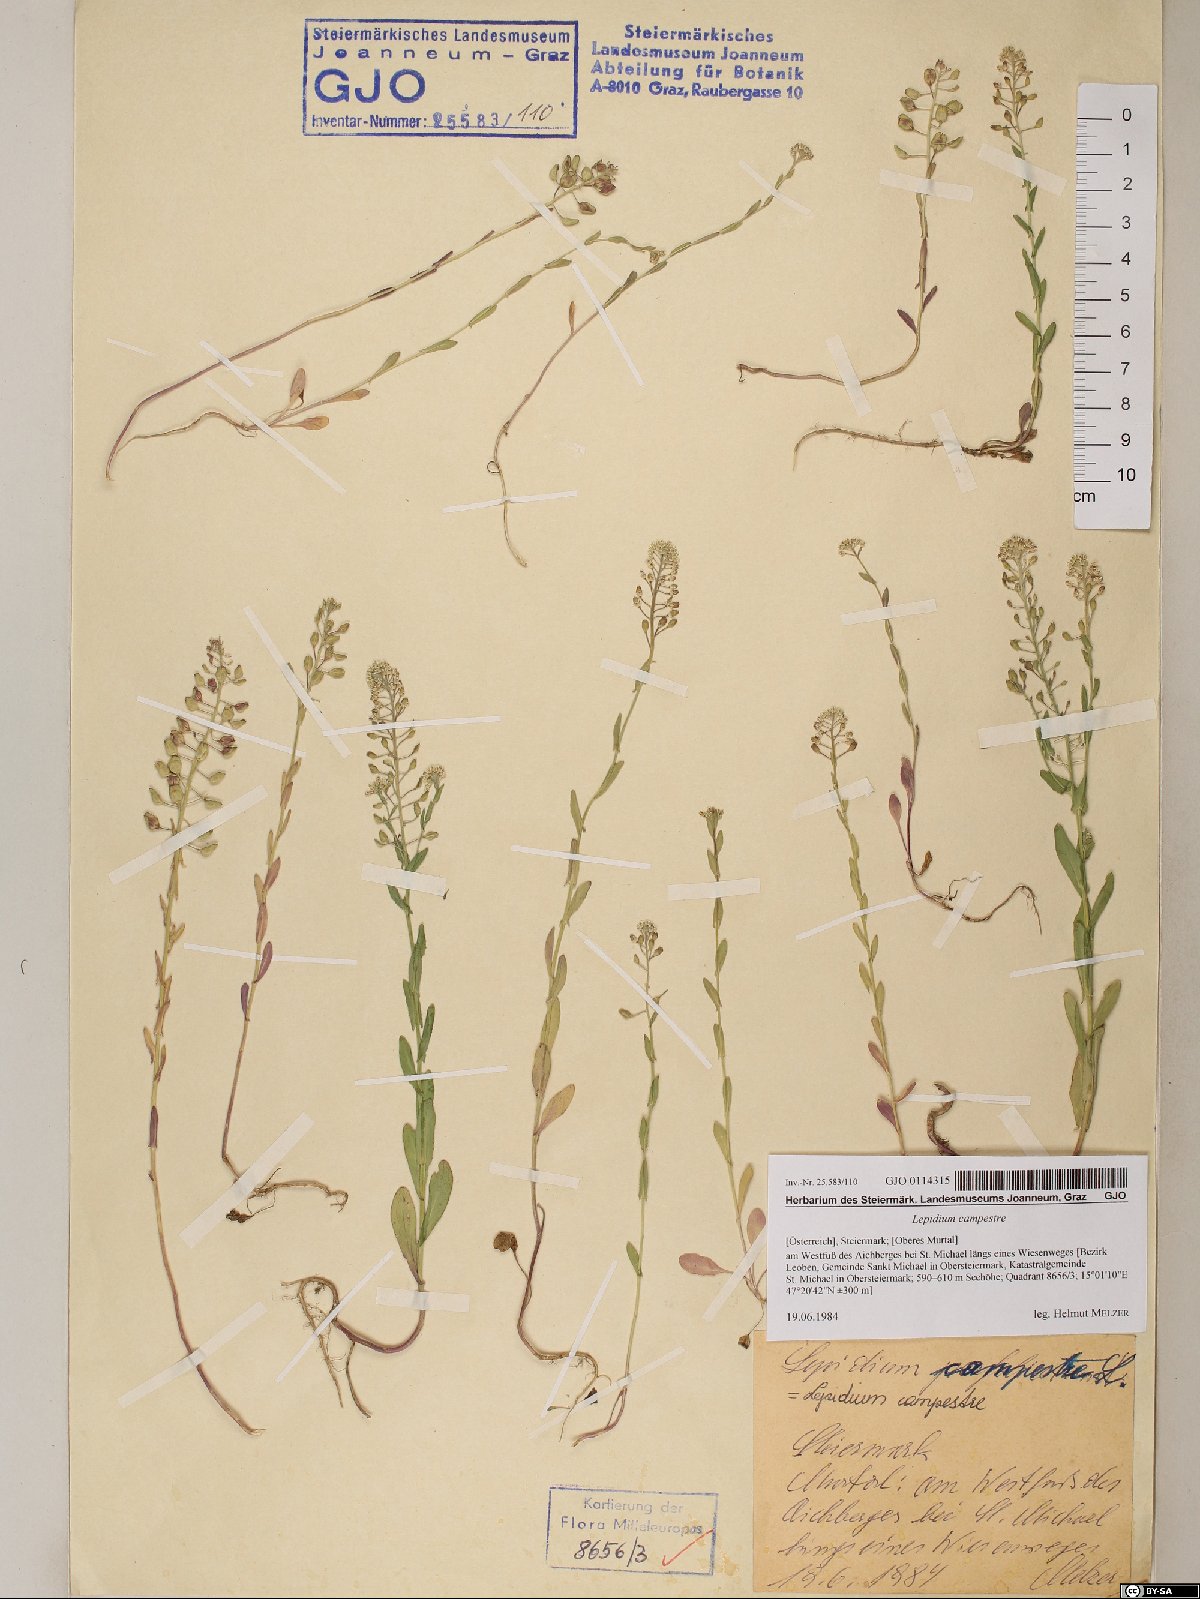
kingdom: Plantae
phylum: Tracheophyta
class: Magnoliopsida
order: Brassicales
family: Brassicaceae
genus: Lepidium
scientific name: Lepidium campestre
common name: Field pepperwort
